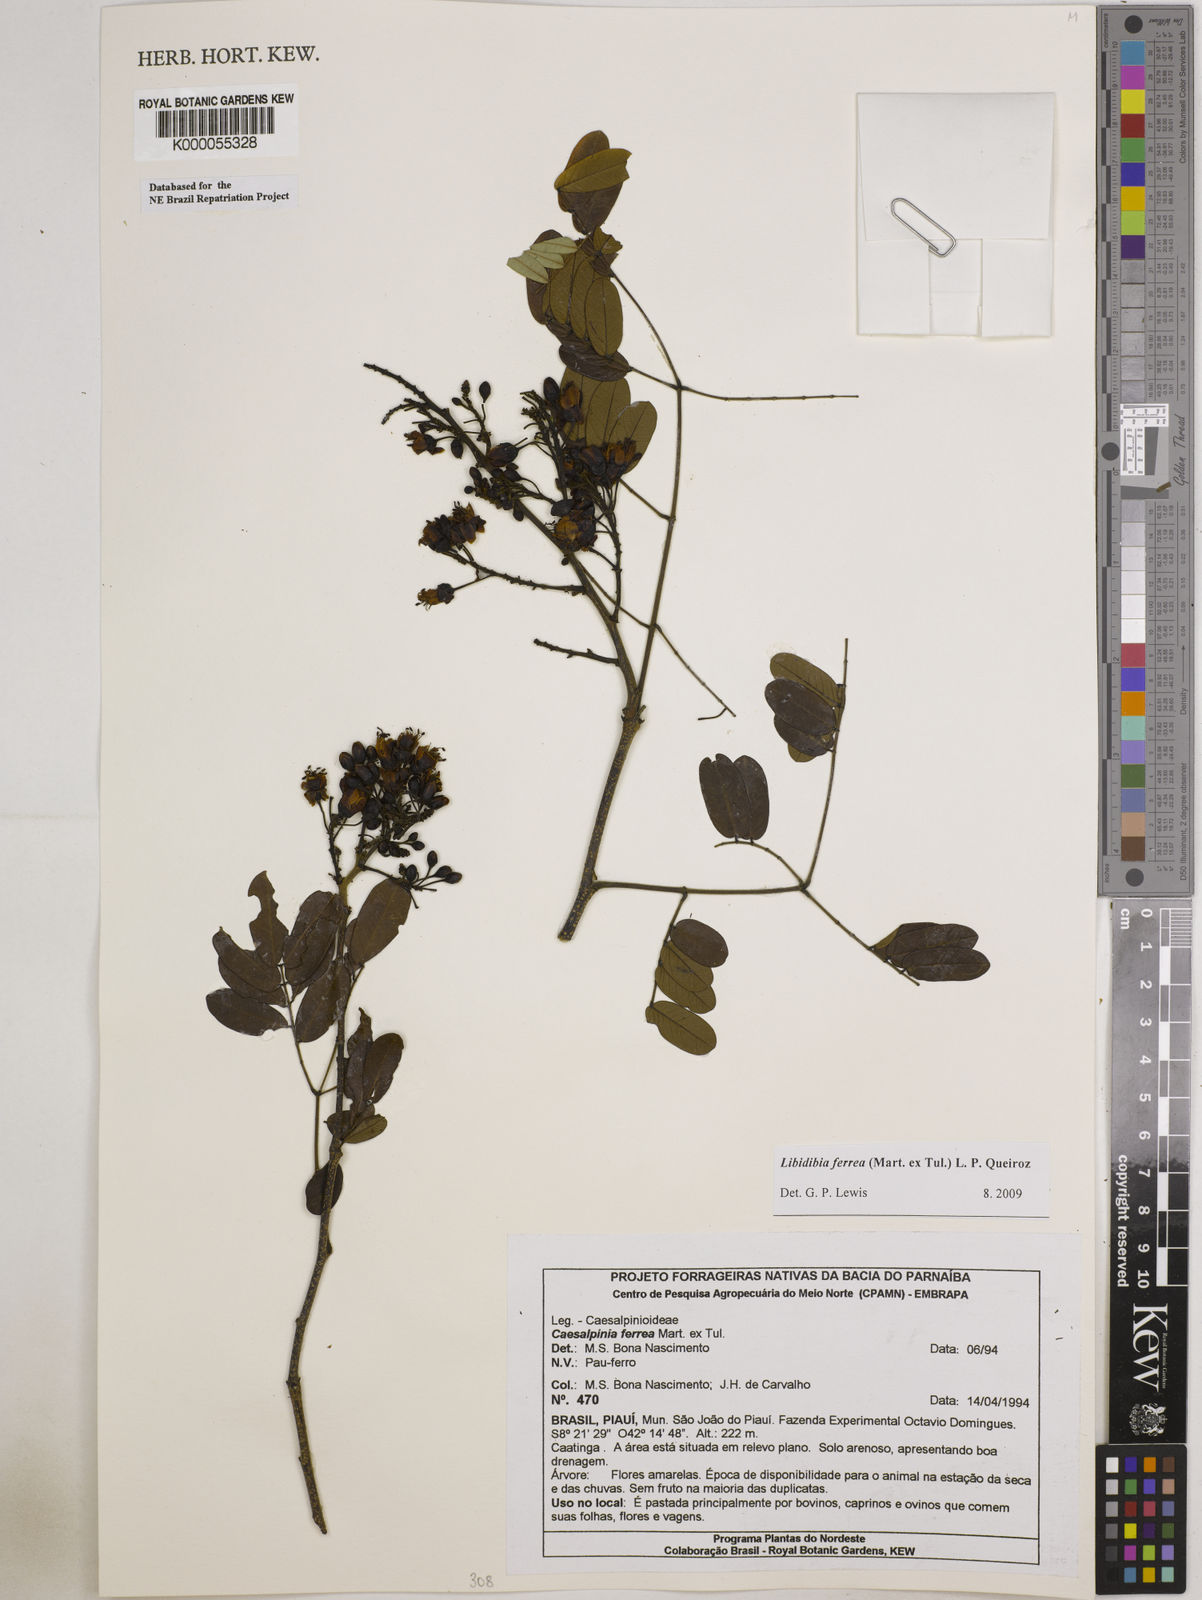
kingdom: Plantae
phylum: Tracheophyta
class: Magnoliopsida
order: Fabales
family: Fabaceae
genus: Libidibia
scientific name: Libidibia ferrea
